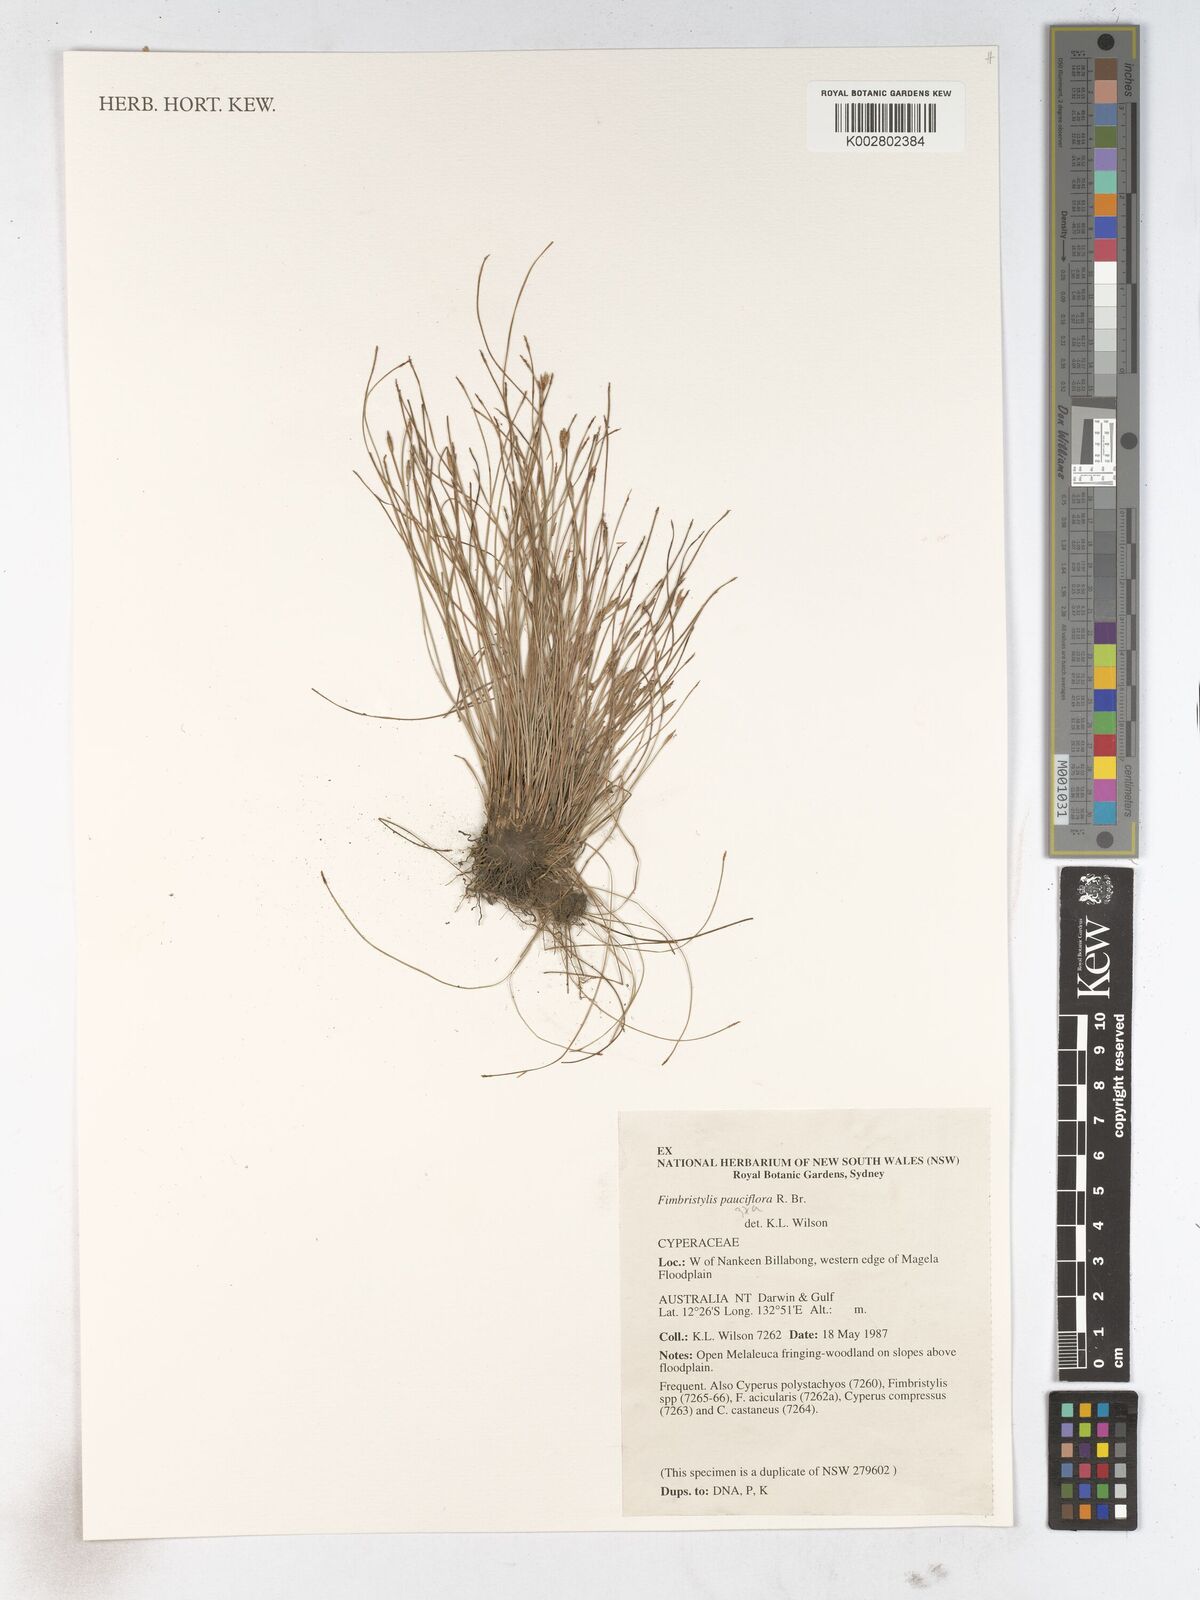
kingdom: Plantae
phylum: Tracheophyta
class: Liliopsida
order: Poales
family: Cyperaceae
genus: Fimbristylis
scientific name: Fimbristylis pauciflora
